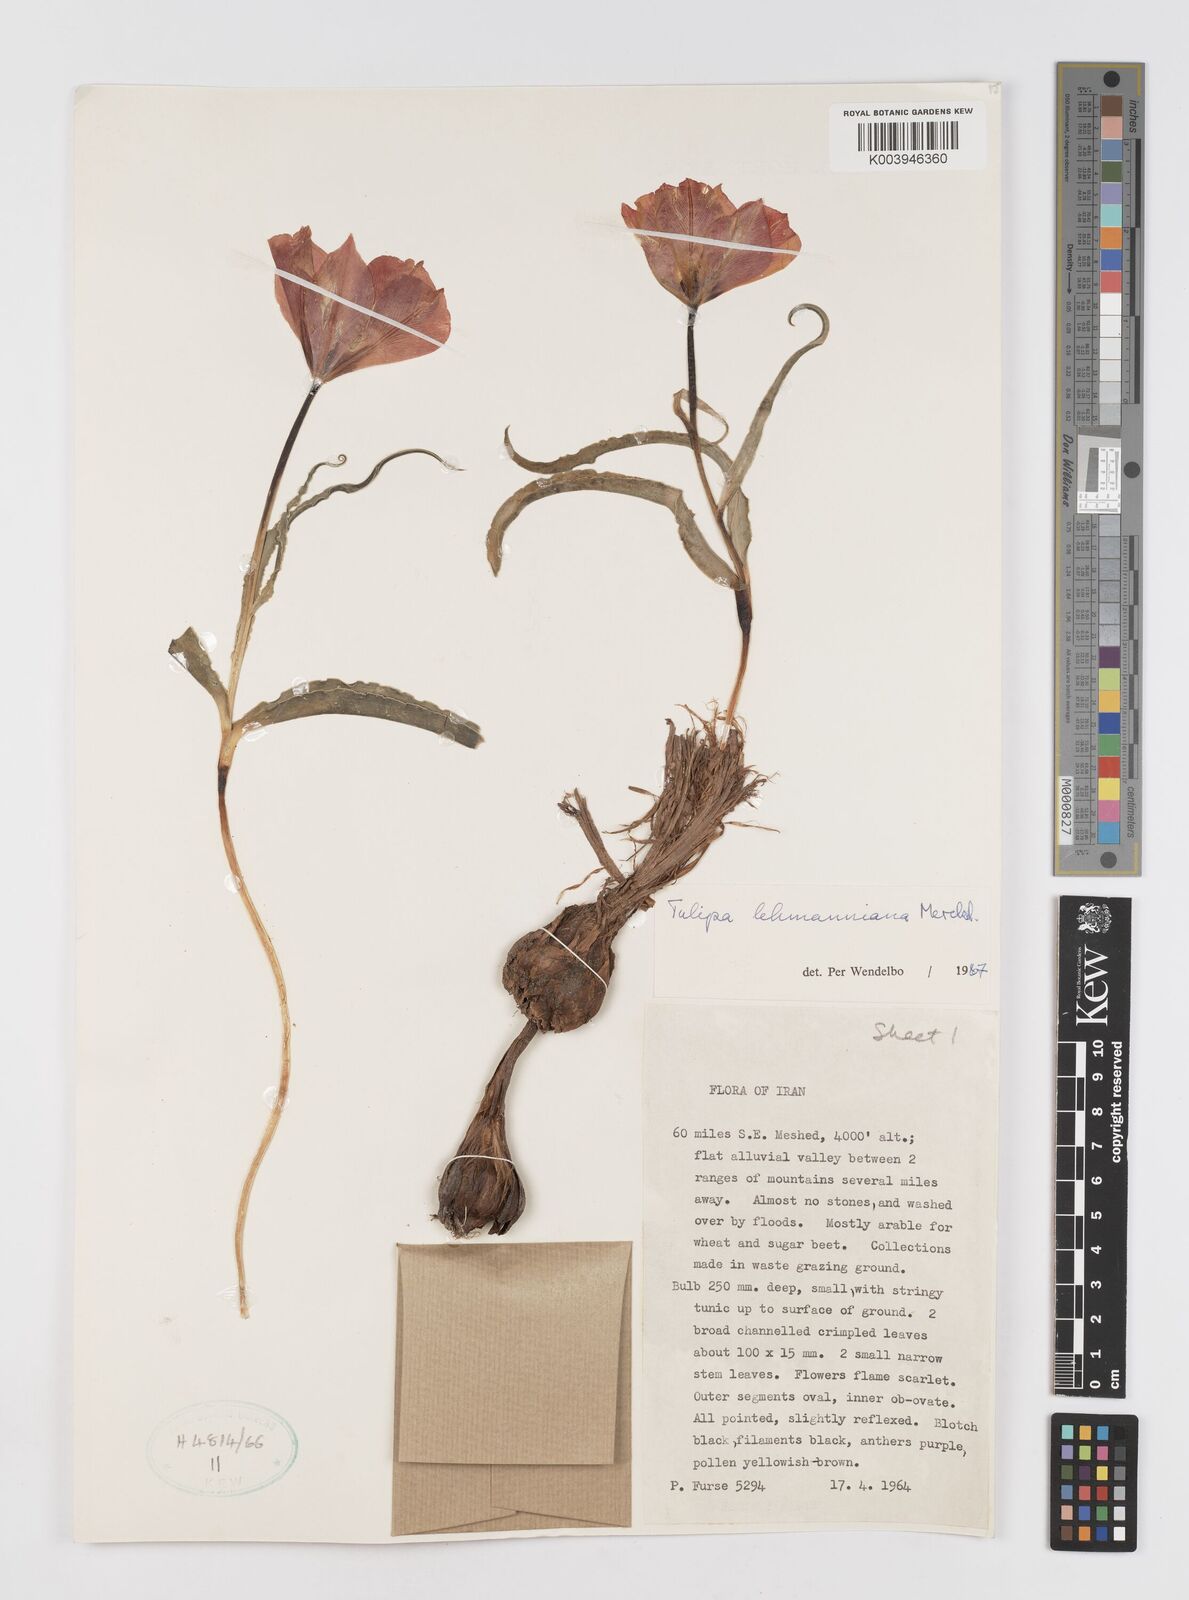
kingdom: Plantae
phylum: Tracheophyta
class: Liliopsida
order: Liliales
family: Liliaceae
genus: Tulipa
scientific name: Tulipa lehmanniana
